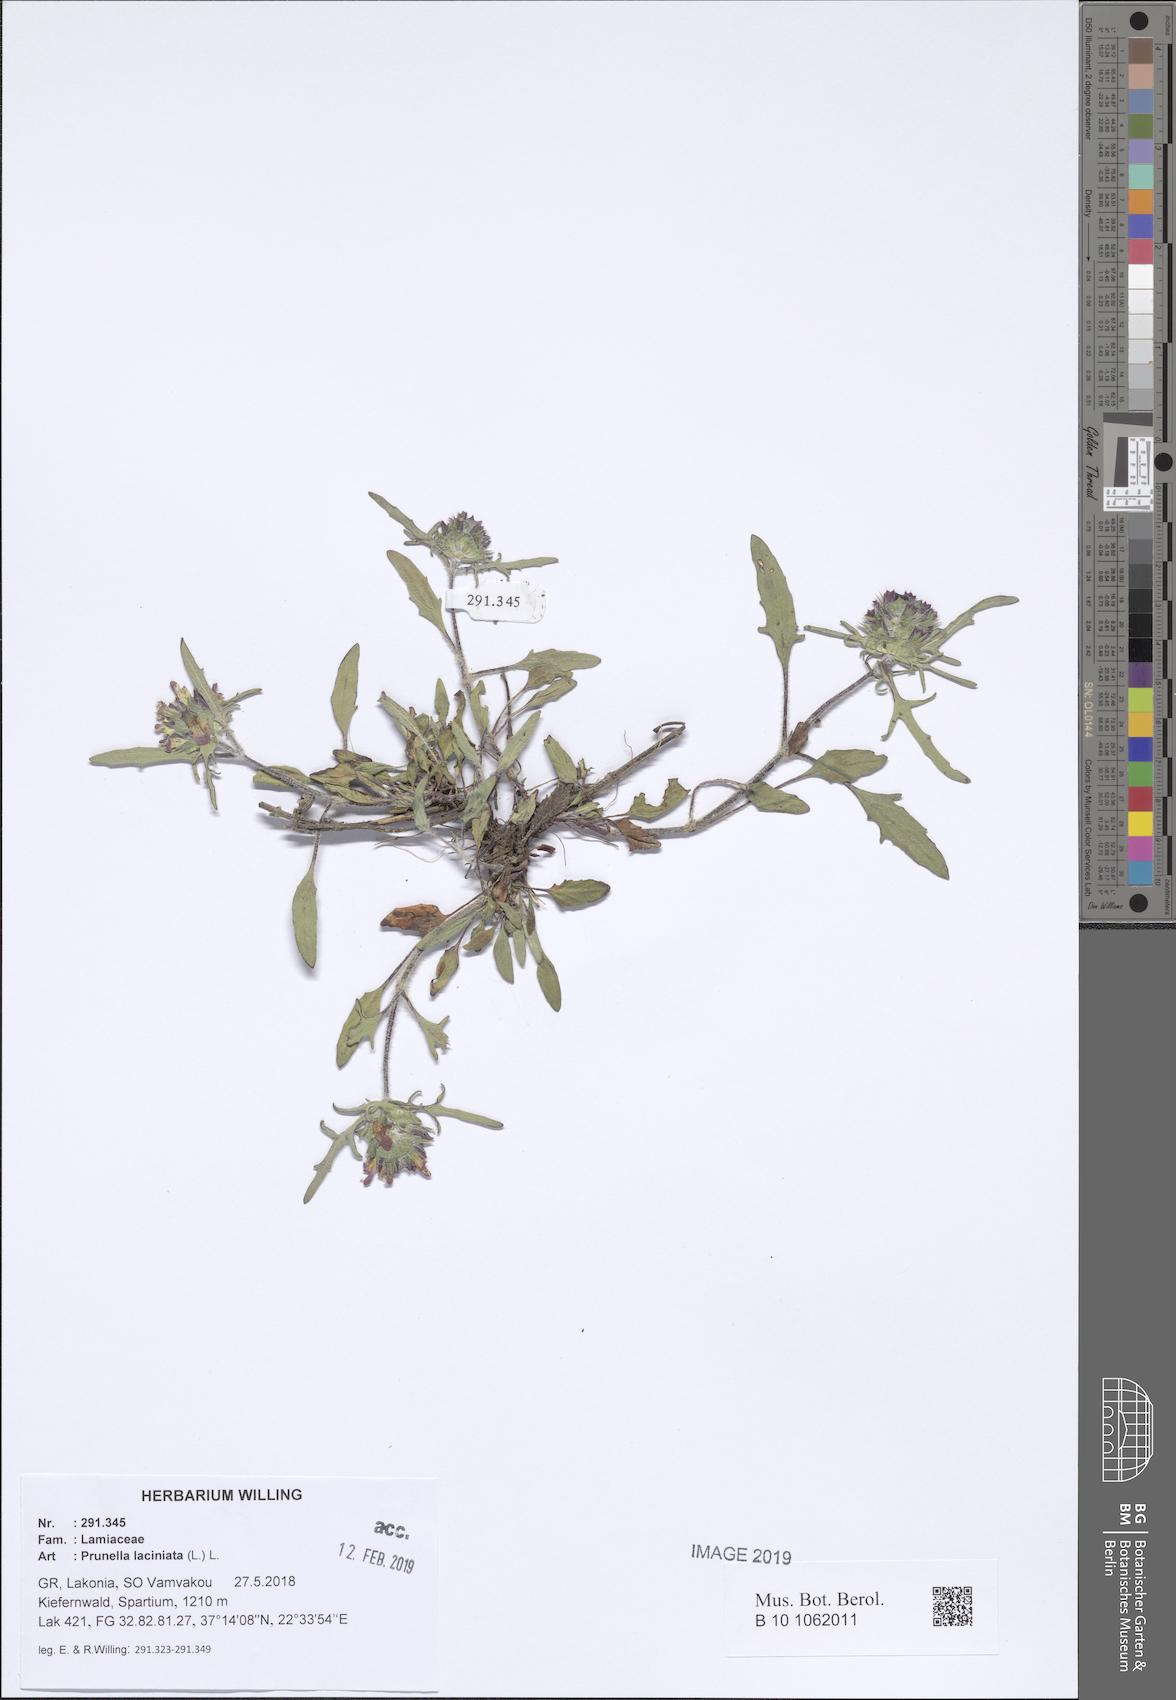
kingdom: Plantae
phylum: Tracheophyta
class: Magnoliopsida
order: Lamiales
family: Lamiaceae
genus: Prunella
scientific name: Prunella laciniata
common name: Cut-leaved selfheal
